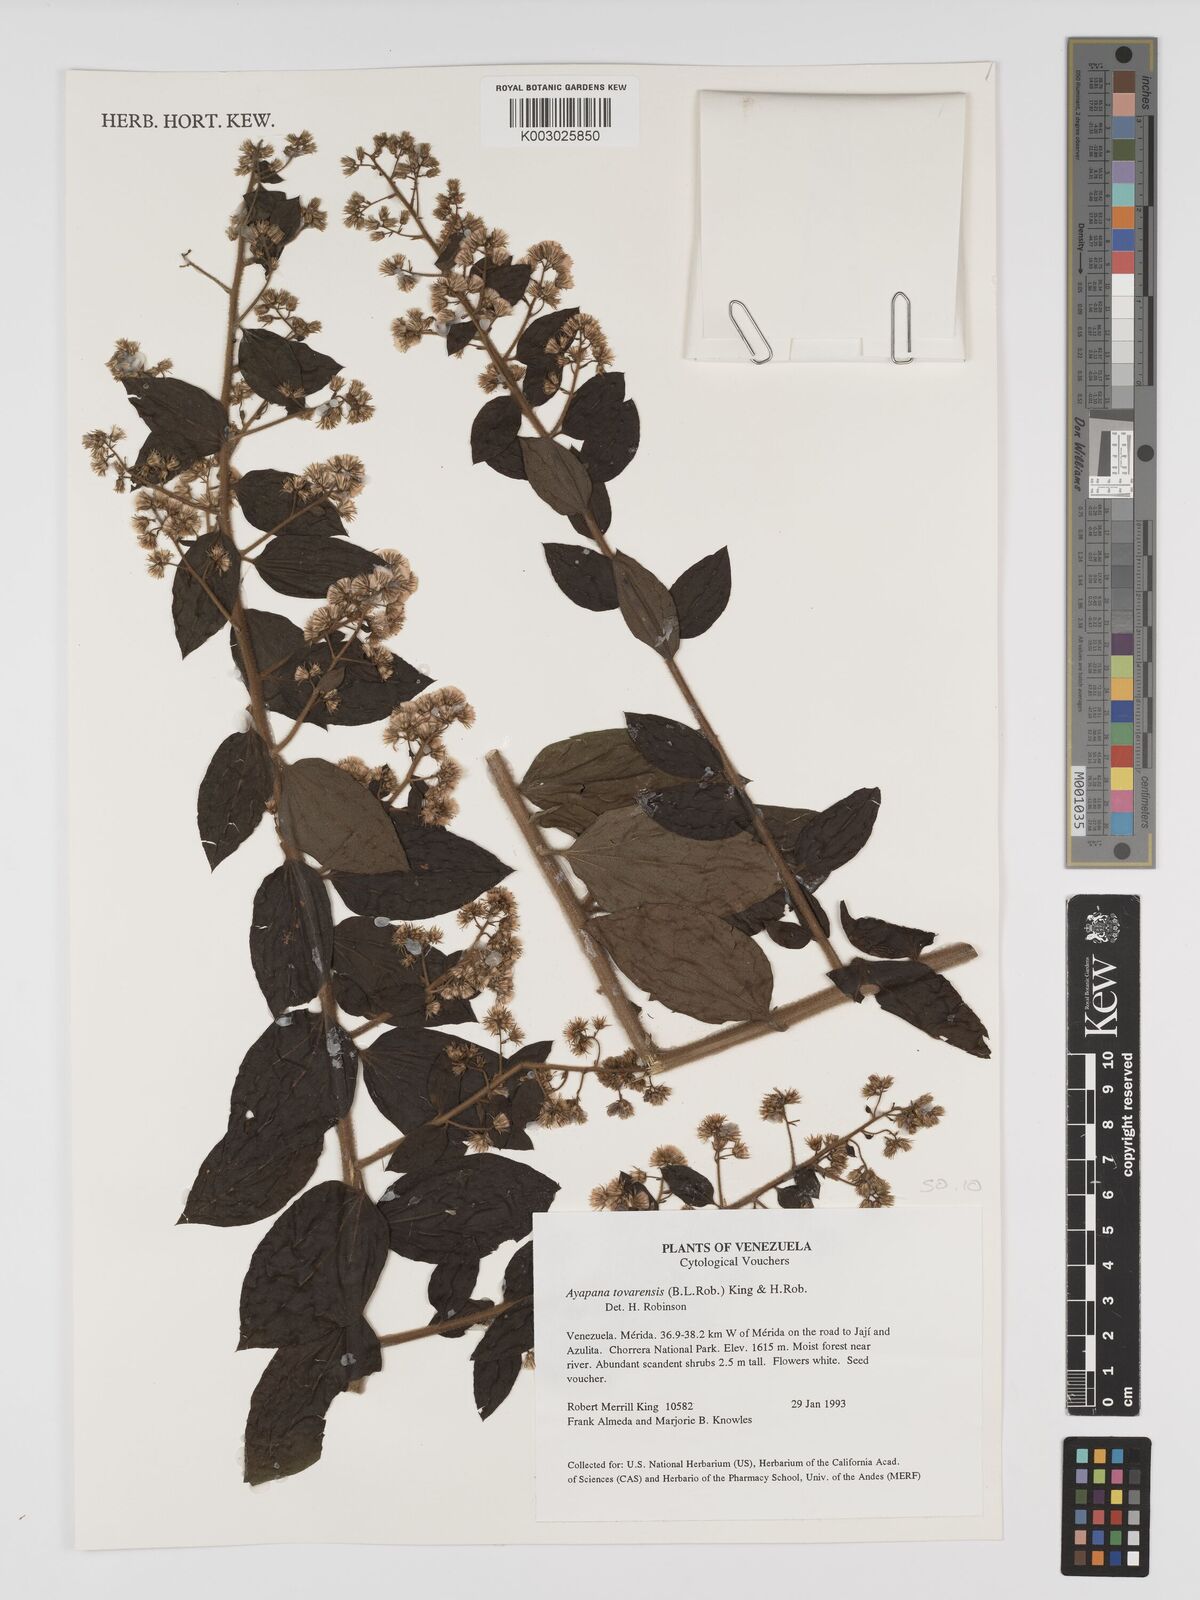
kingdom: Plantae
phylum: Tracheophyta
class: Magnoliopsida
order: Asterales
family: Asteraceae
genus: Ayapana
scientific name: Ayapana tovarensis
